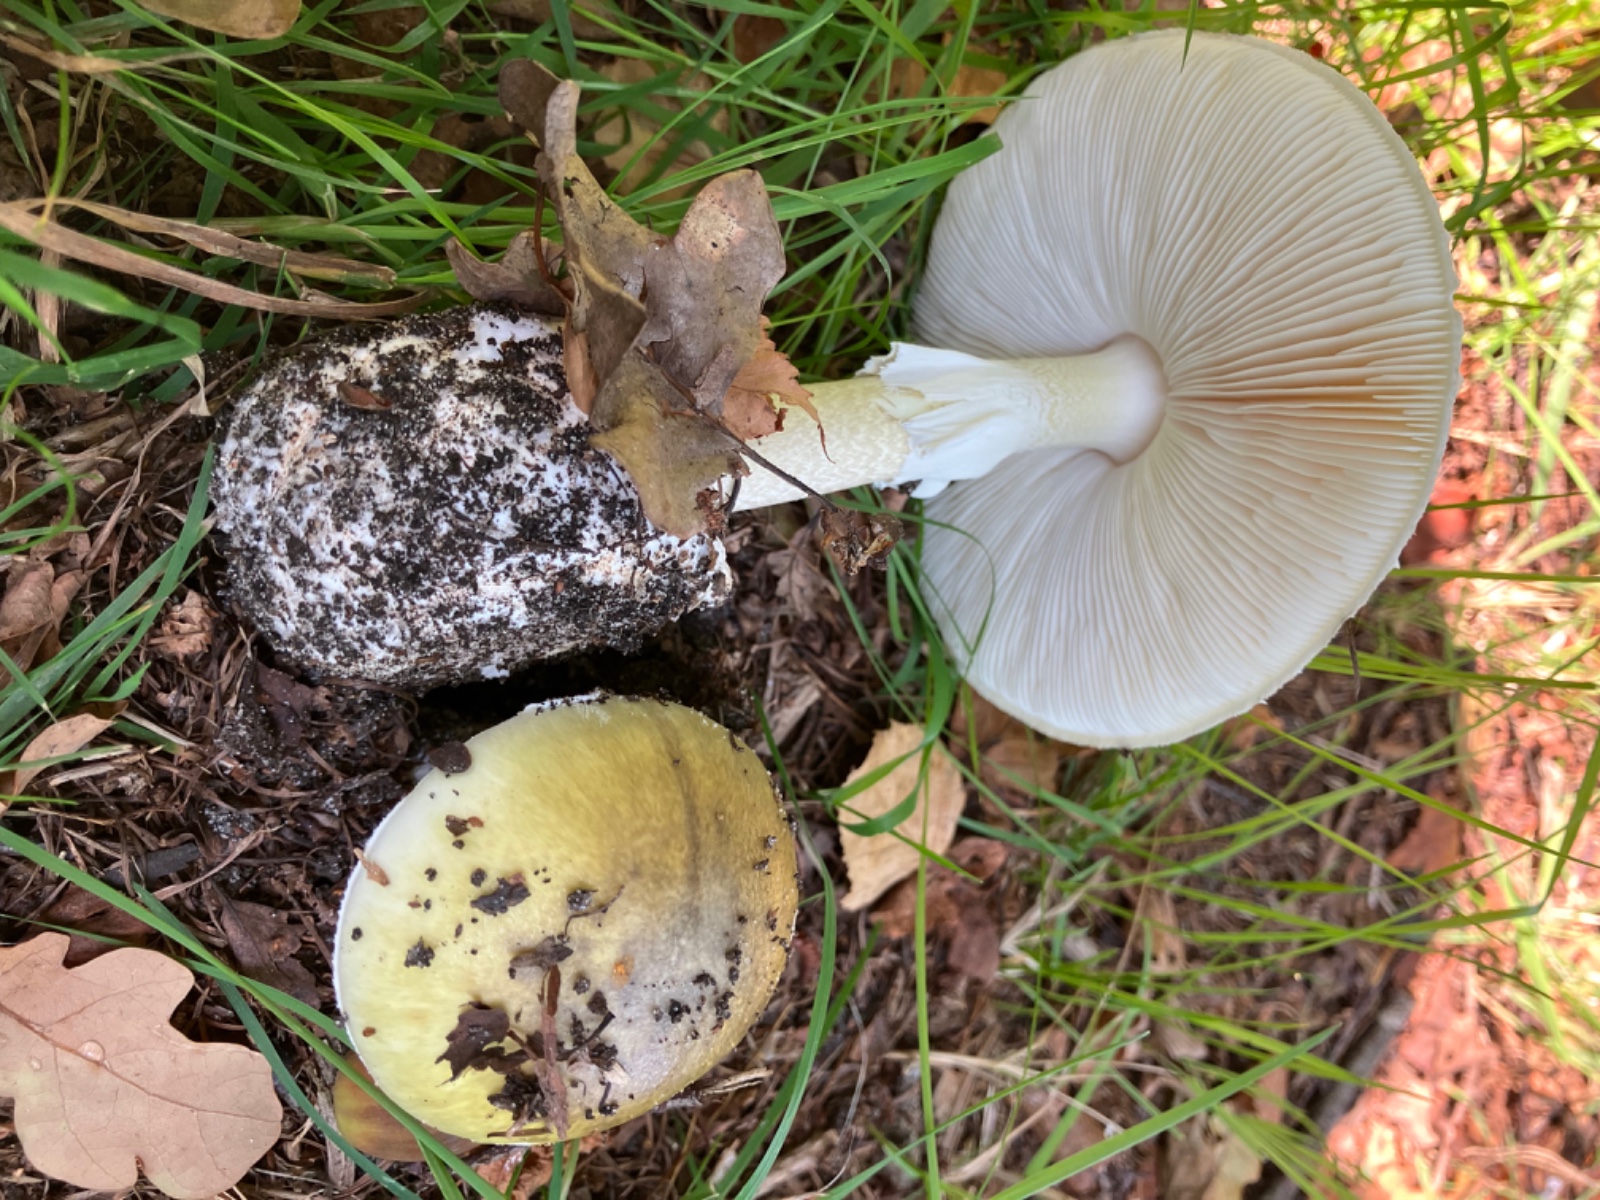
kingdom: Fungi
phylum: Basidiomycota
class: Agaricomycetes
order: Agaricales
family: Amanitaceae
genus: Amanita
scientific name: Amanita phalloides
